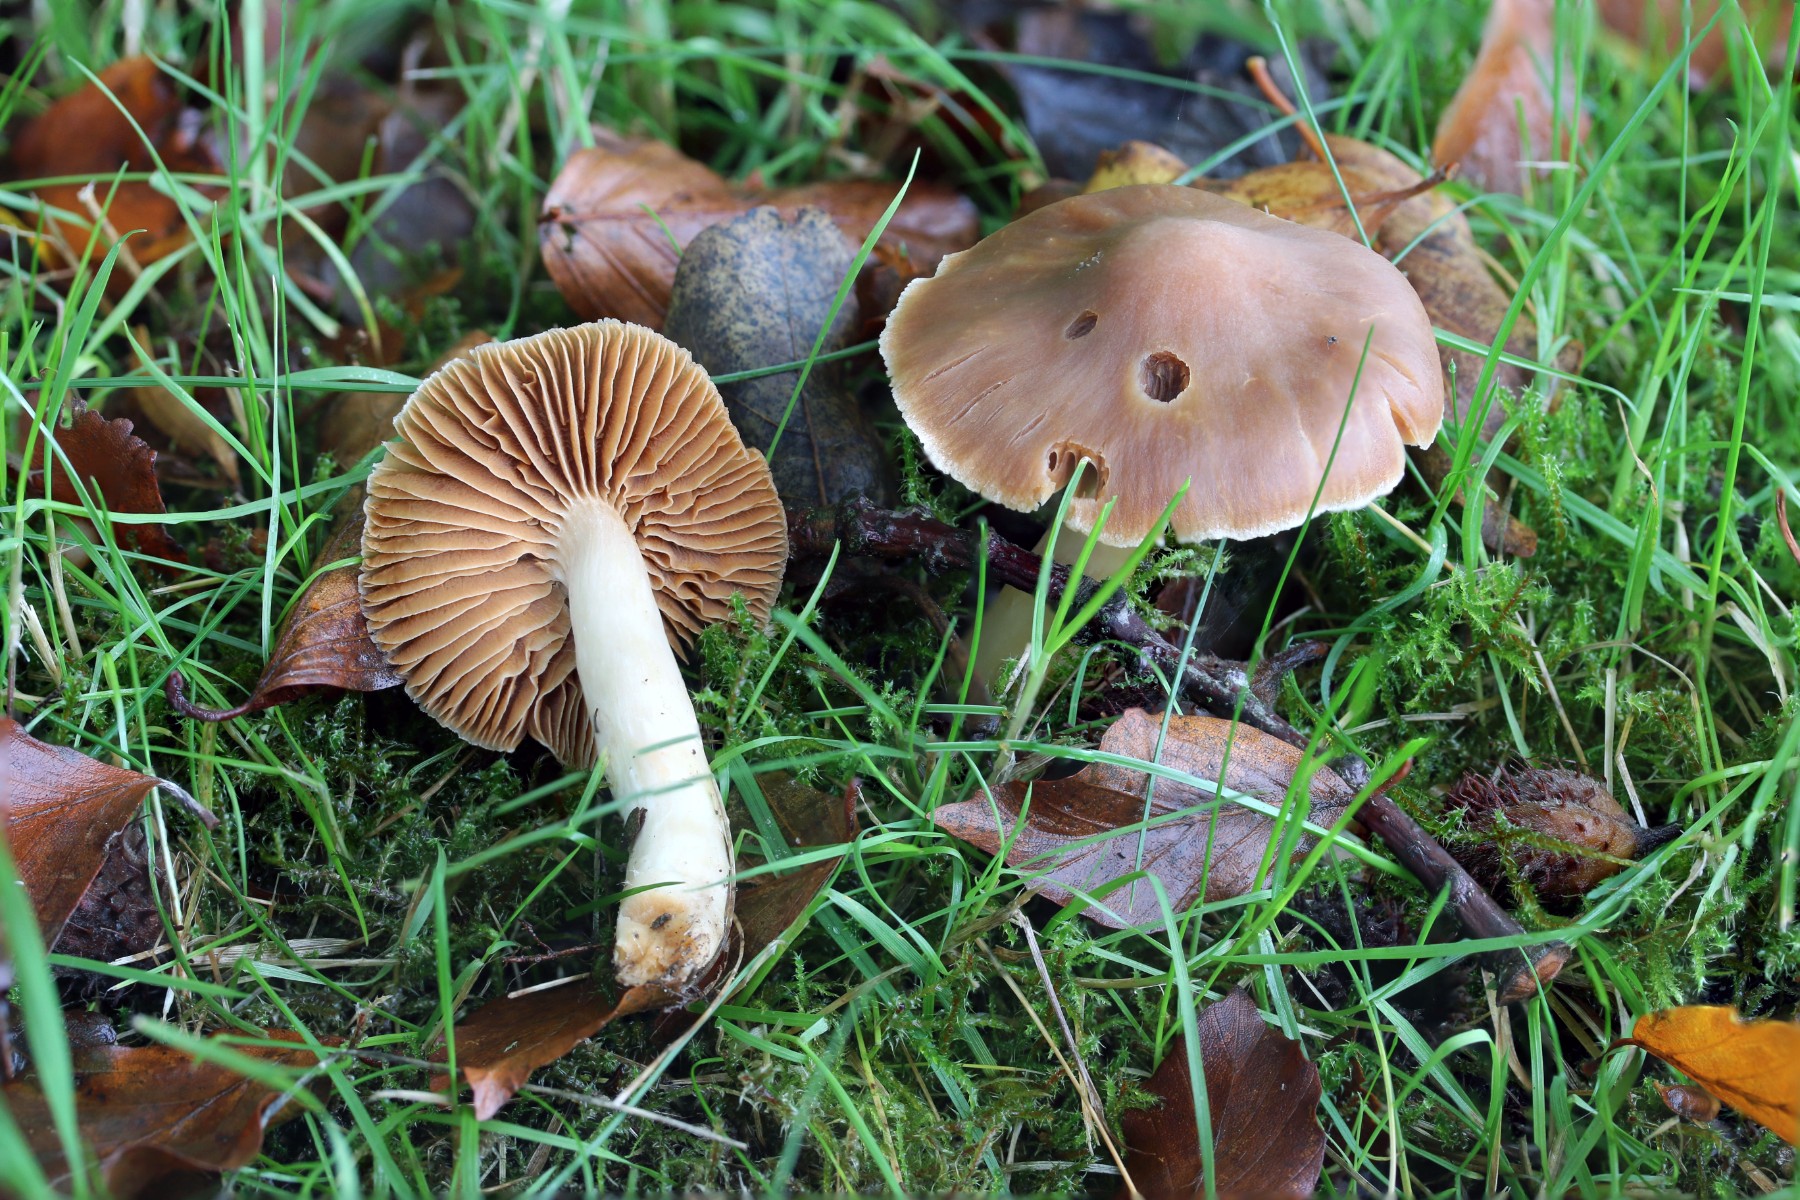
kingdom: Fungi
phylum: Basidiomycota
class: Agaricomycetes
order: Agaricales
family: Cortinariaceae
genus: Cortinarius
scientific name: Cortinarius
